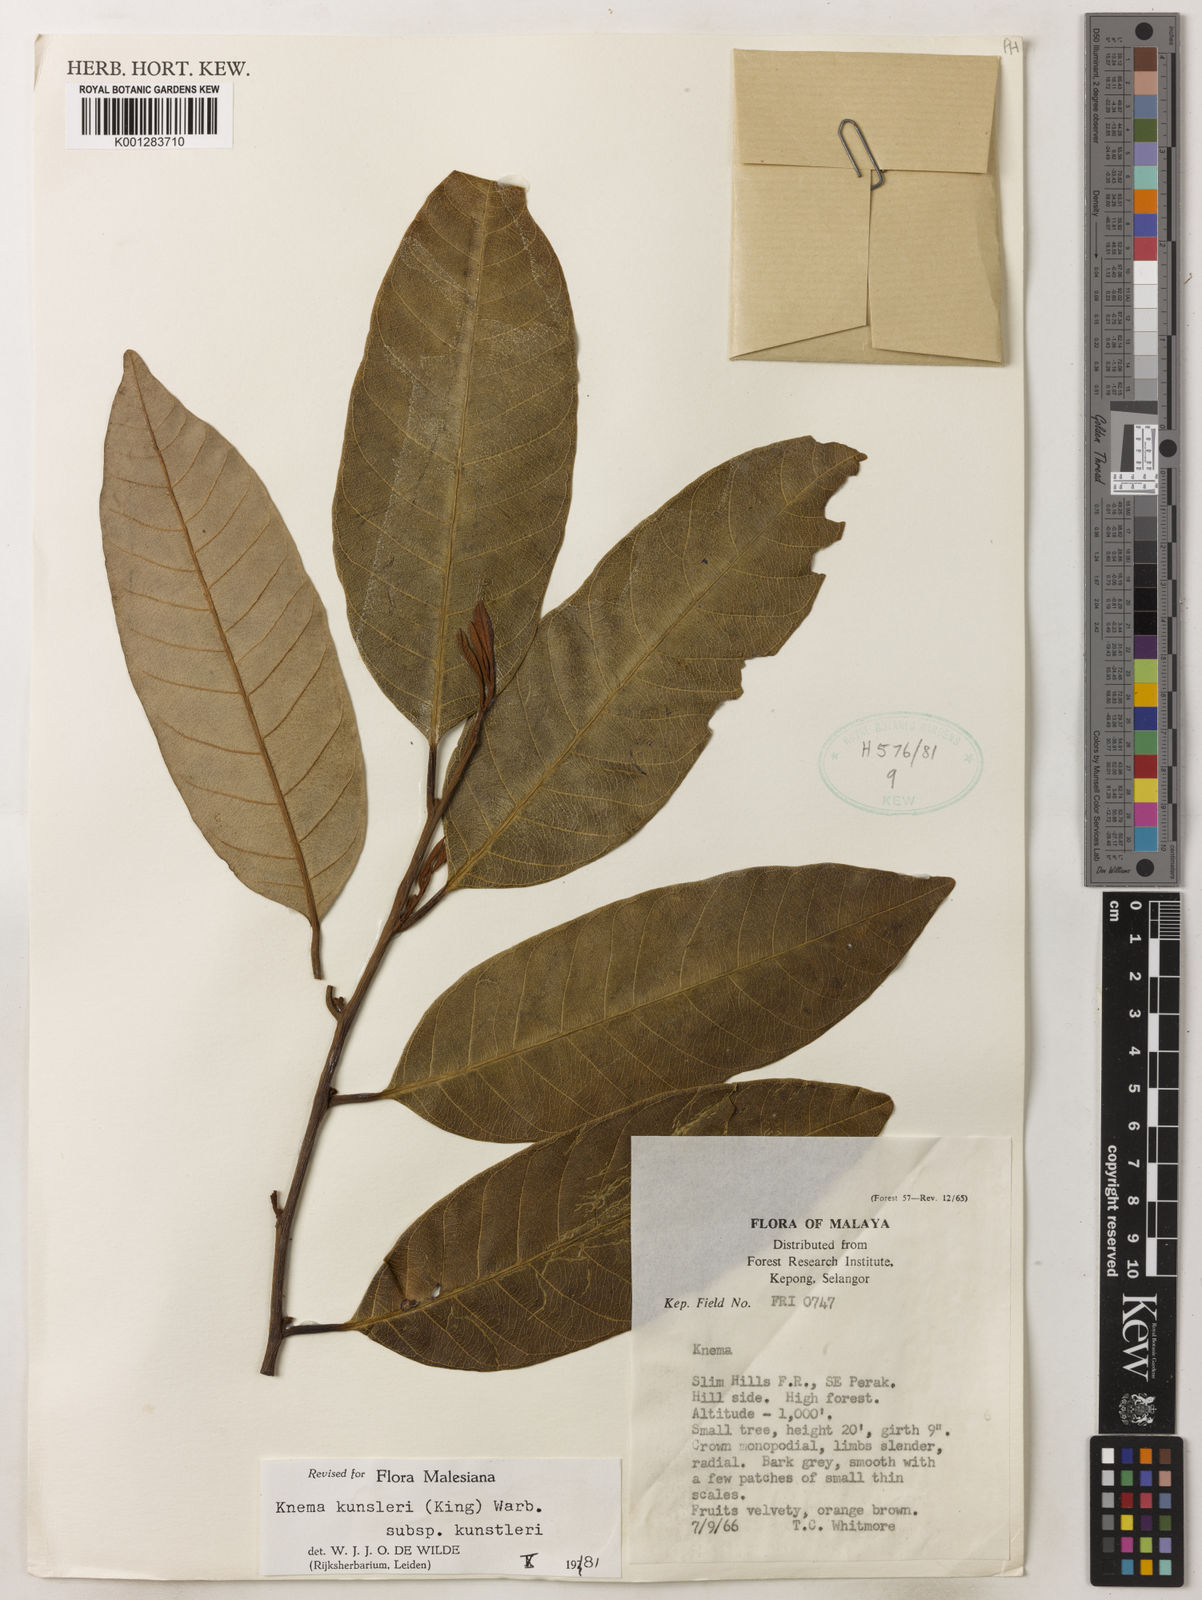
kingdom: Plantae
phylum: Tracheophyta
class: Magnoliopsida
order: Magnoliales
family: Myristicaceae
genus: Knema
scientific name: Knema kunstleri
